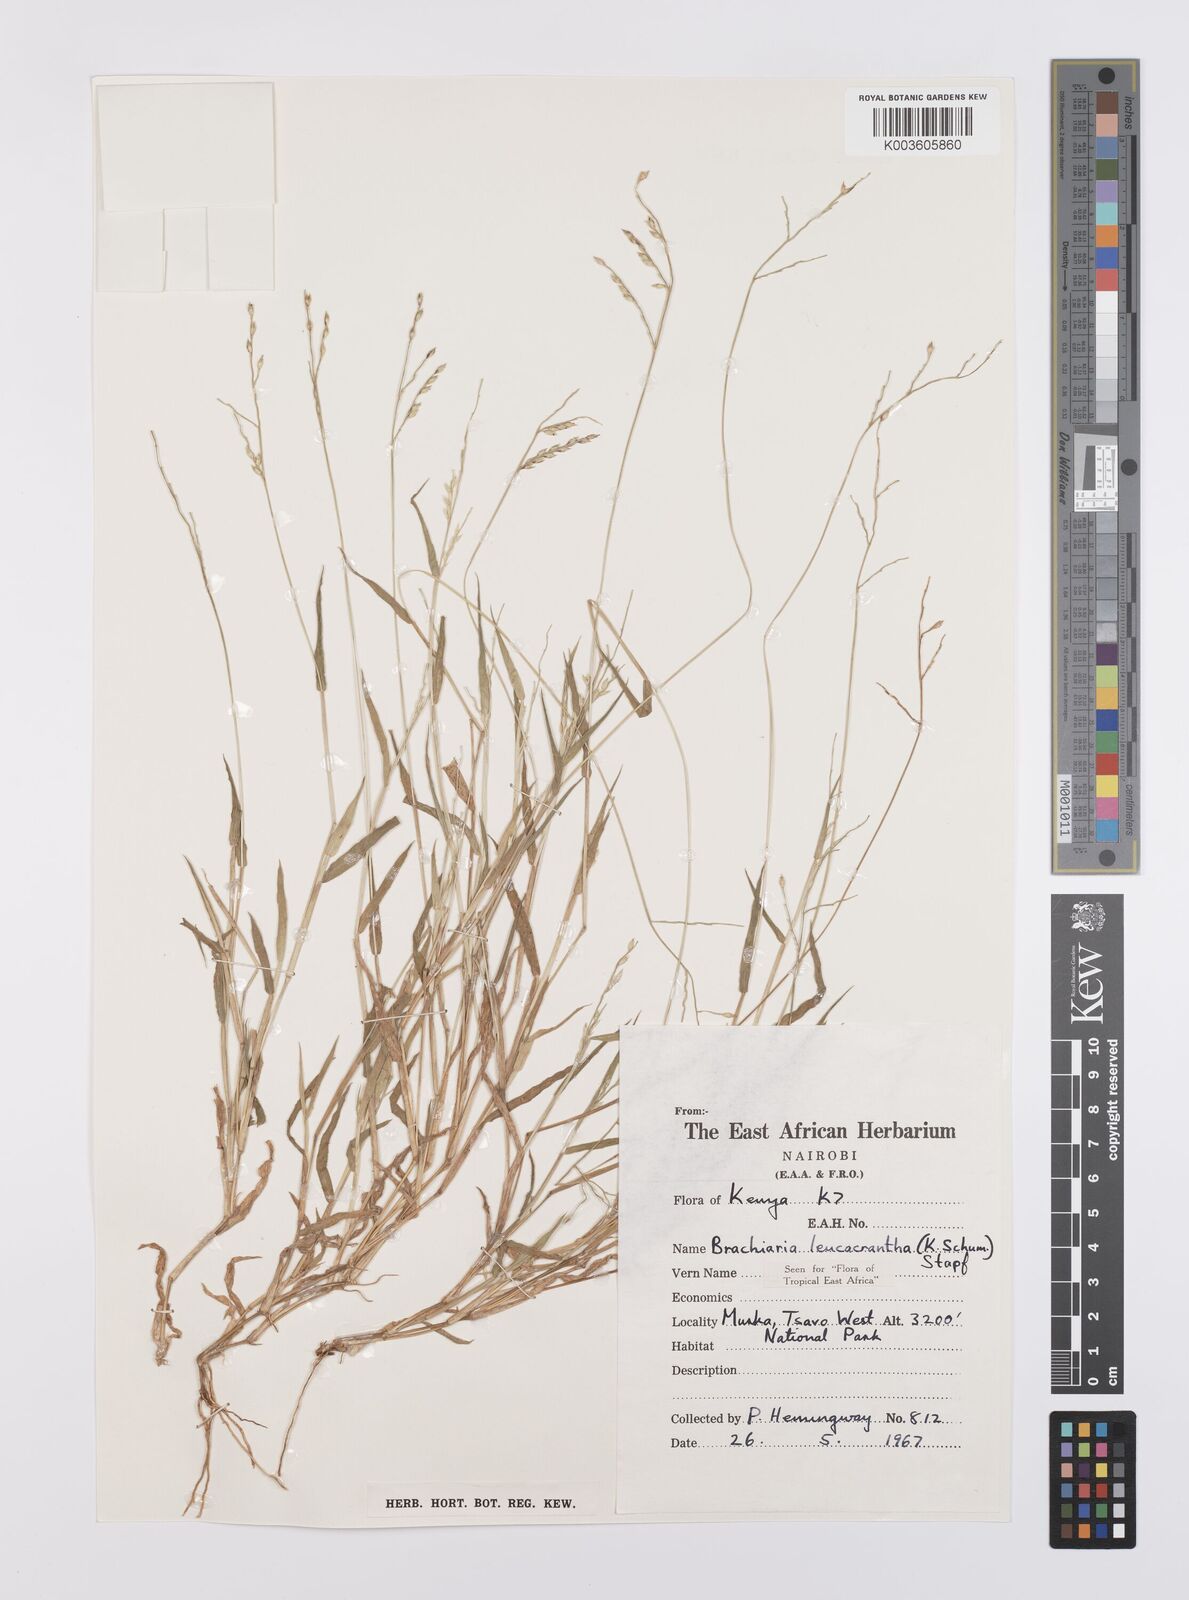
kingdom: Plantae
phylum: Tracheophyta
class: Liliopsida
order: Poales
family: Poaceae
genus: Urochloa
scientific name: Urochloa xantholeuca
